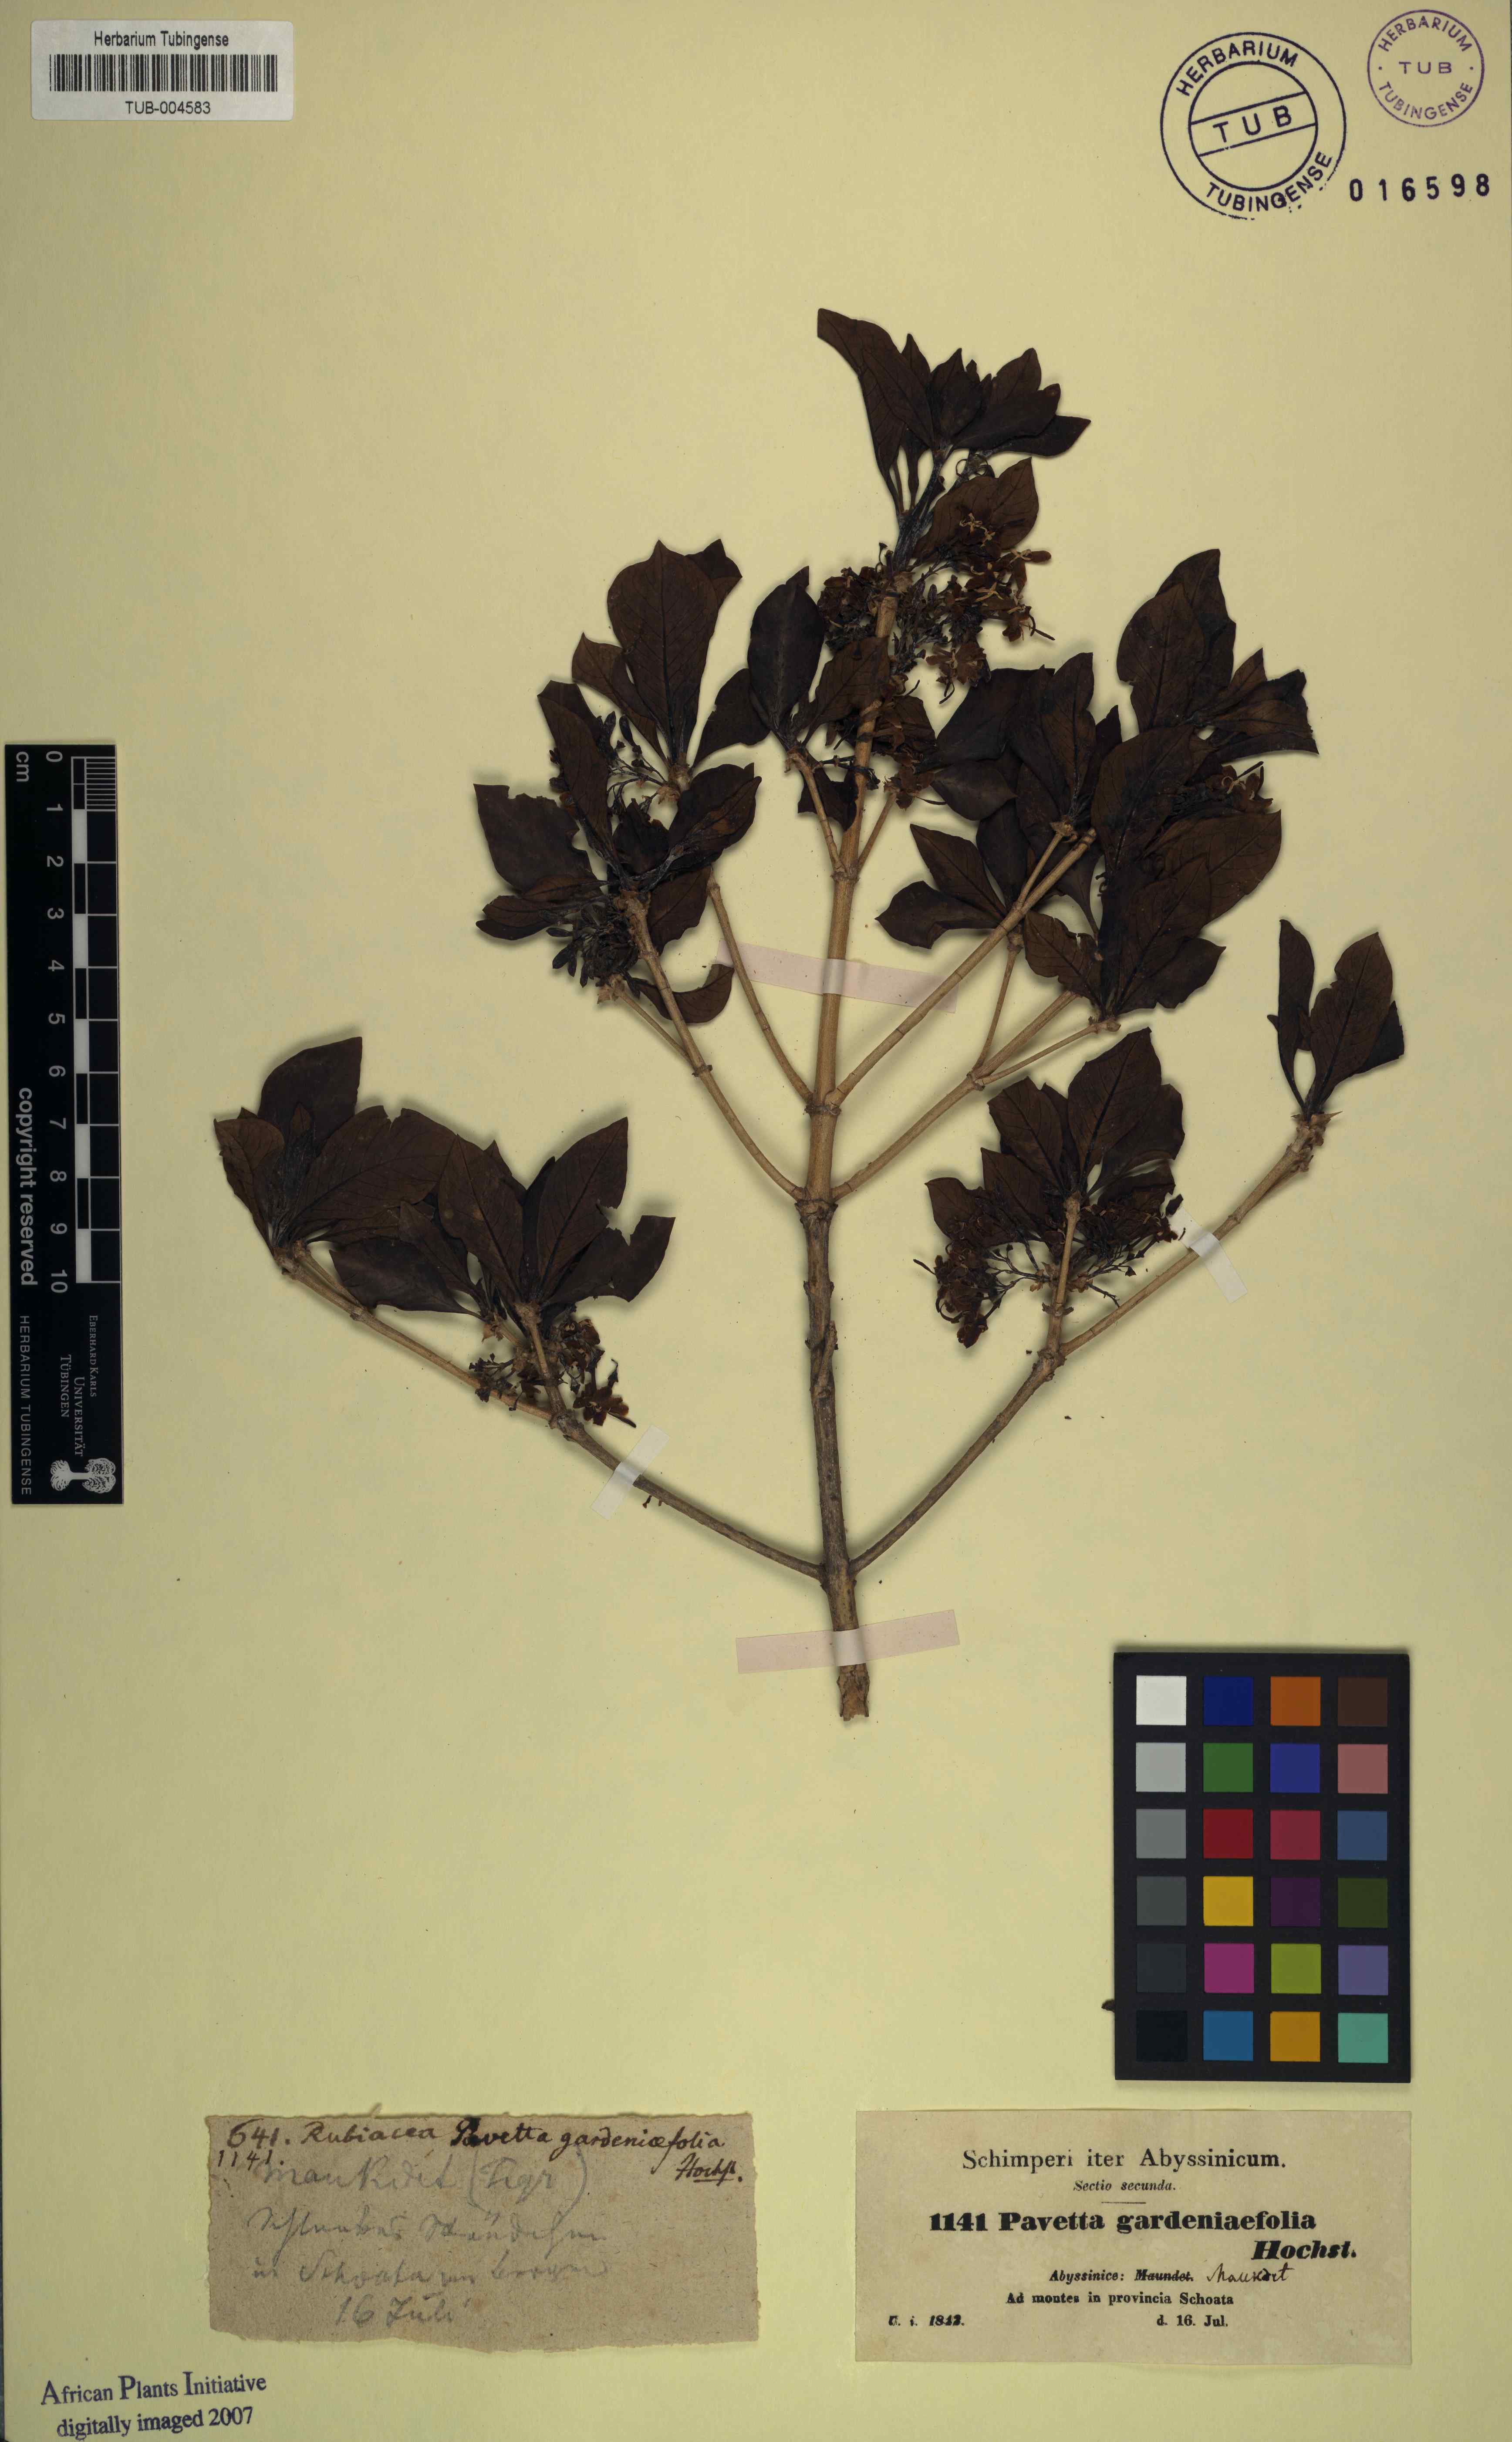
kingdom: Plantae
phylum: Tracheophyta
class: Magnoliopsida
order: Gentianales
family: Rubiaceae
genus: Pavetta
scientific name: Pavetta gardeniifolia
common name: Common brides-bush
